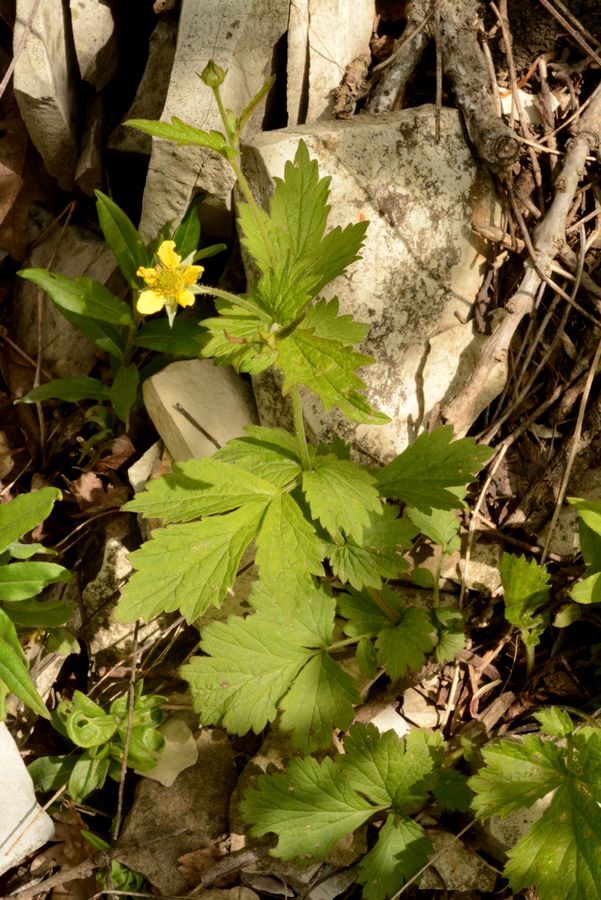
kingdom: Plantae
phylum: Tracheophyta
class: Magnoliopsida
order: Rosales
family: Rosaceae
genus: Geum
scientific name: Geum urbanum
